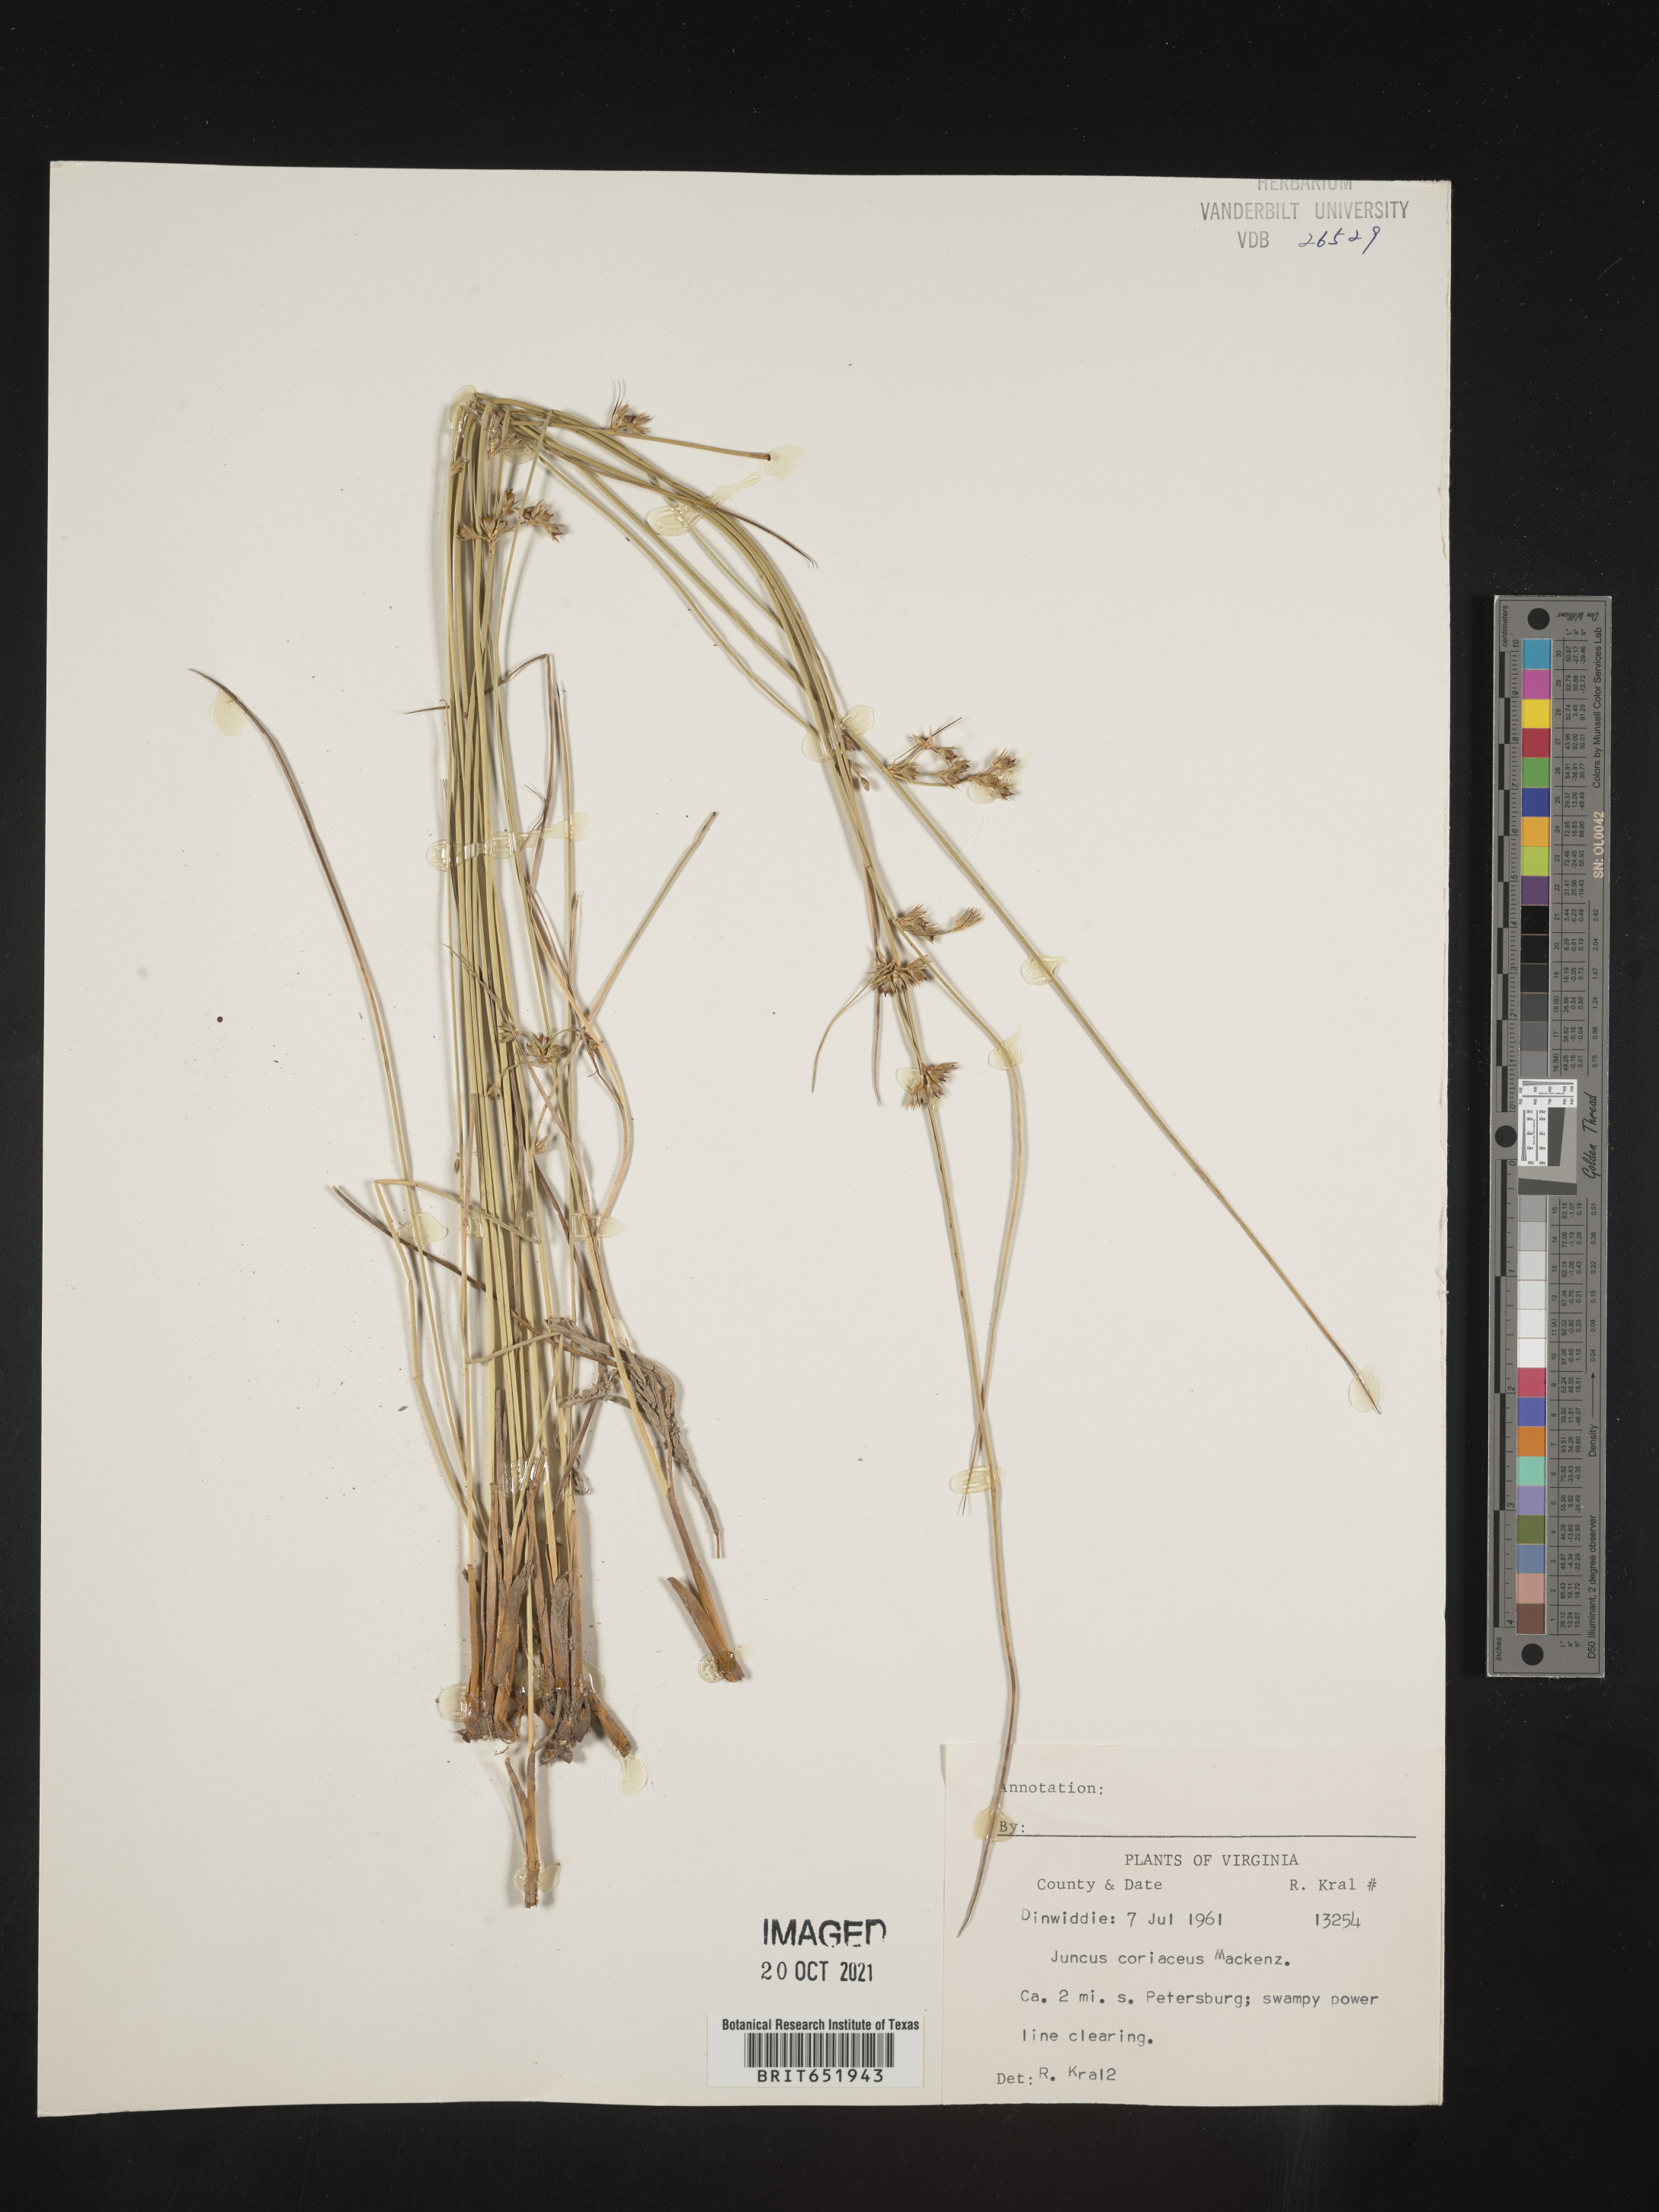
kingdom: Plantae
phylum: Tracheophyta
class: Liliopsida
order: Poales
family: Juncaceae
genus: Juncus
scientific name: Juncus coriaceus
